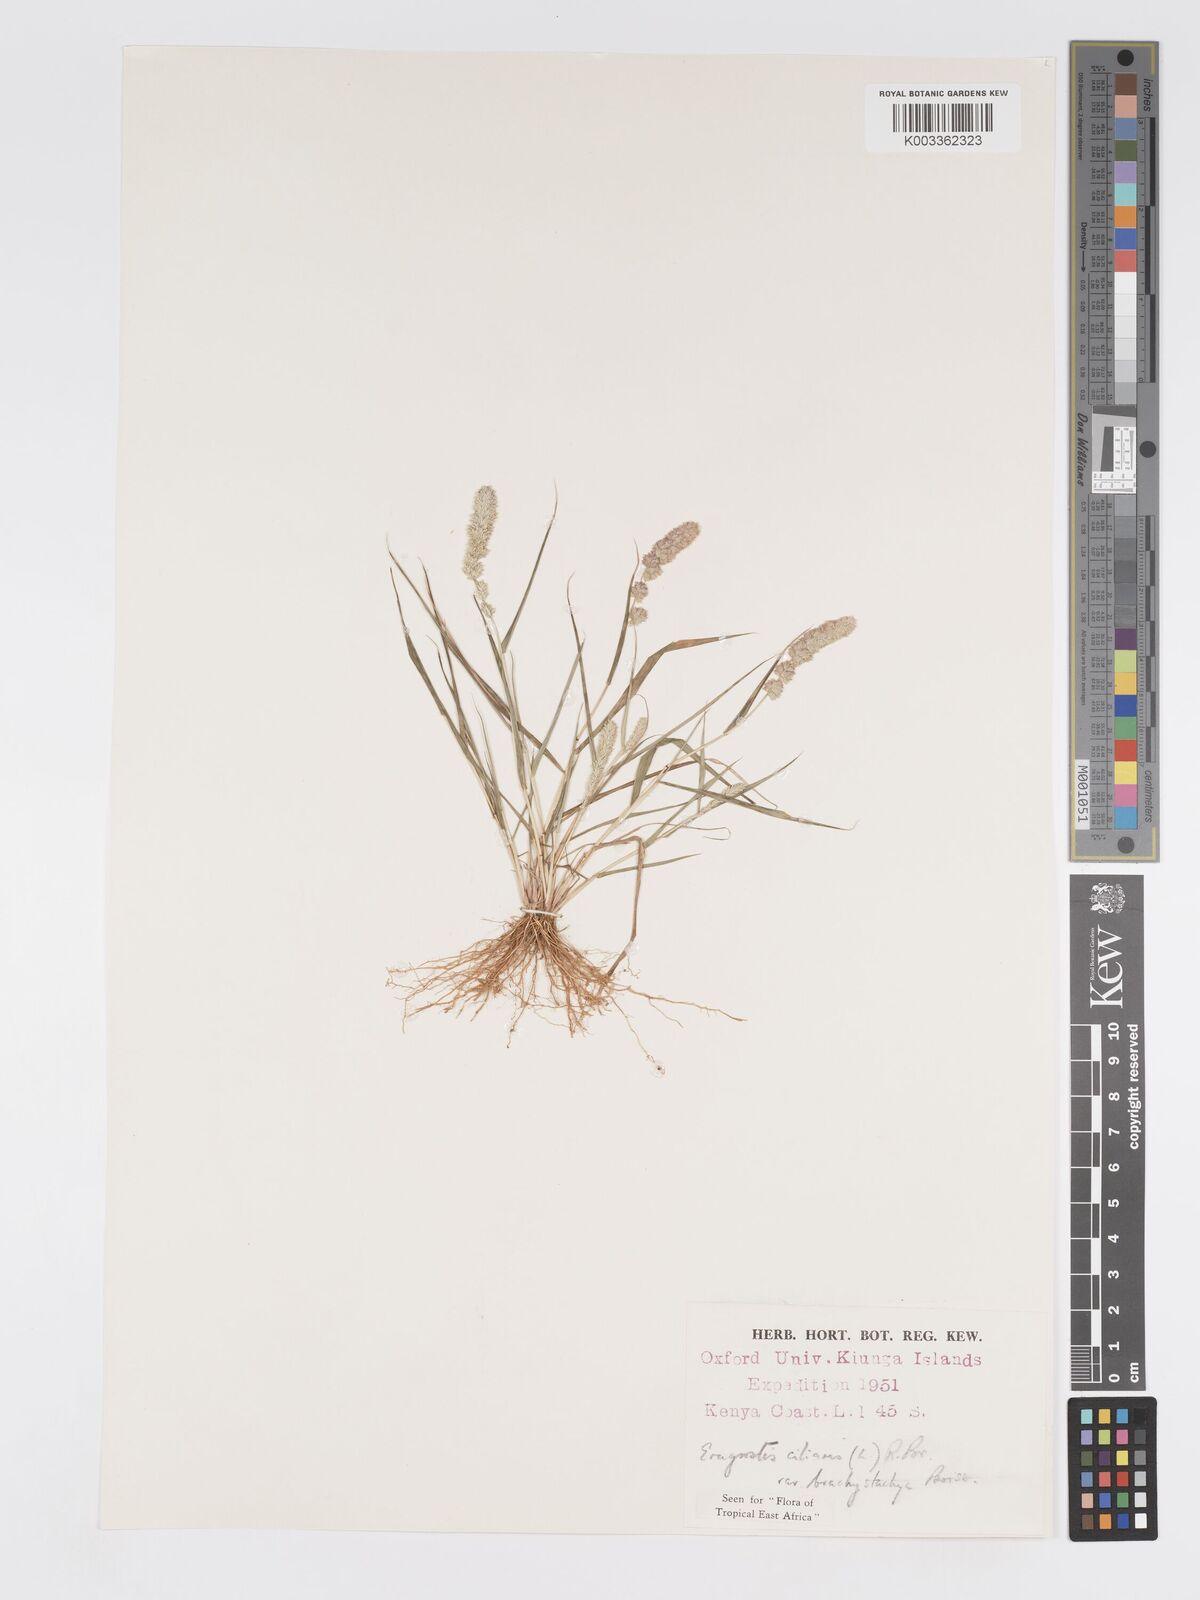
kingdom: Plantae
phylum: Tracheophyta
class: Liliopsida
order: Poales
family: Poaceae
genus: Eragrostis
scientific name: Eragrostis ciliaris
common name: Gophertail lovegrass
